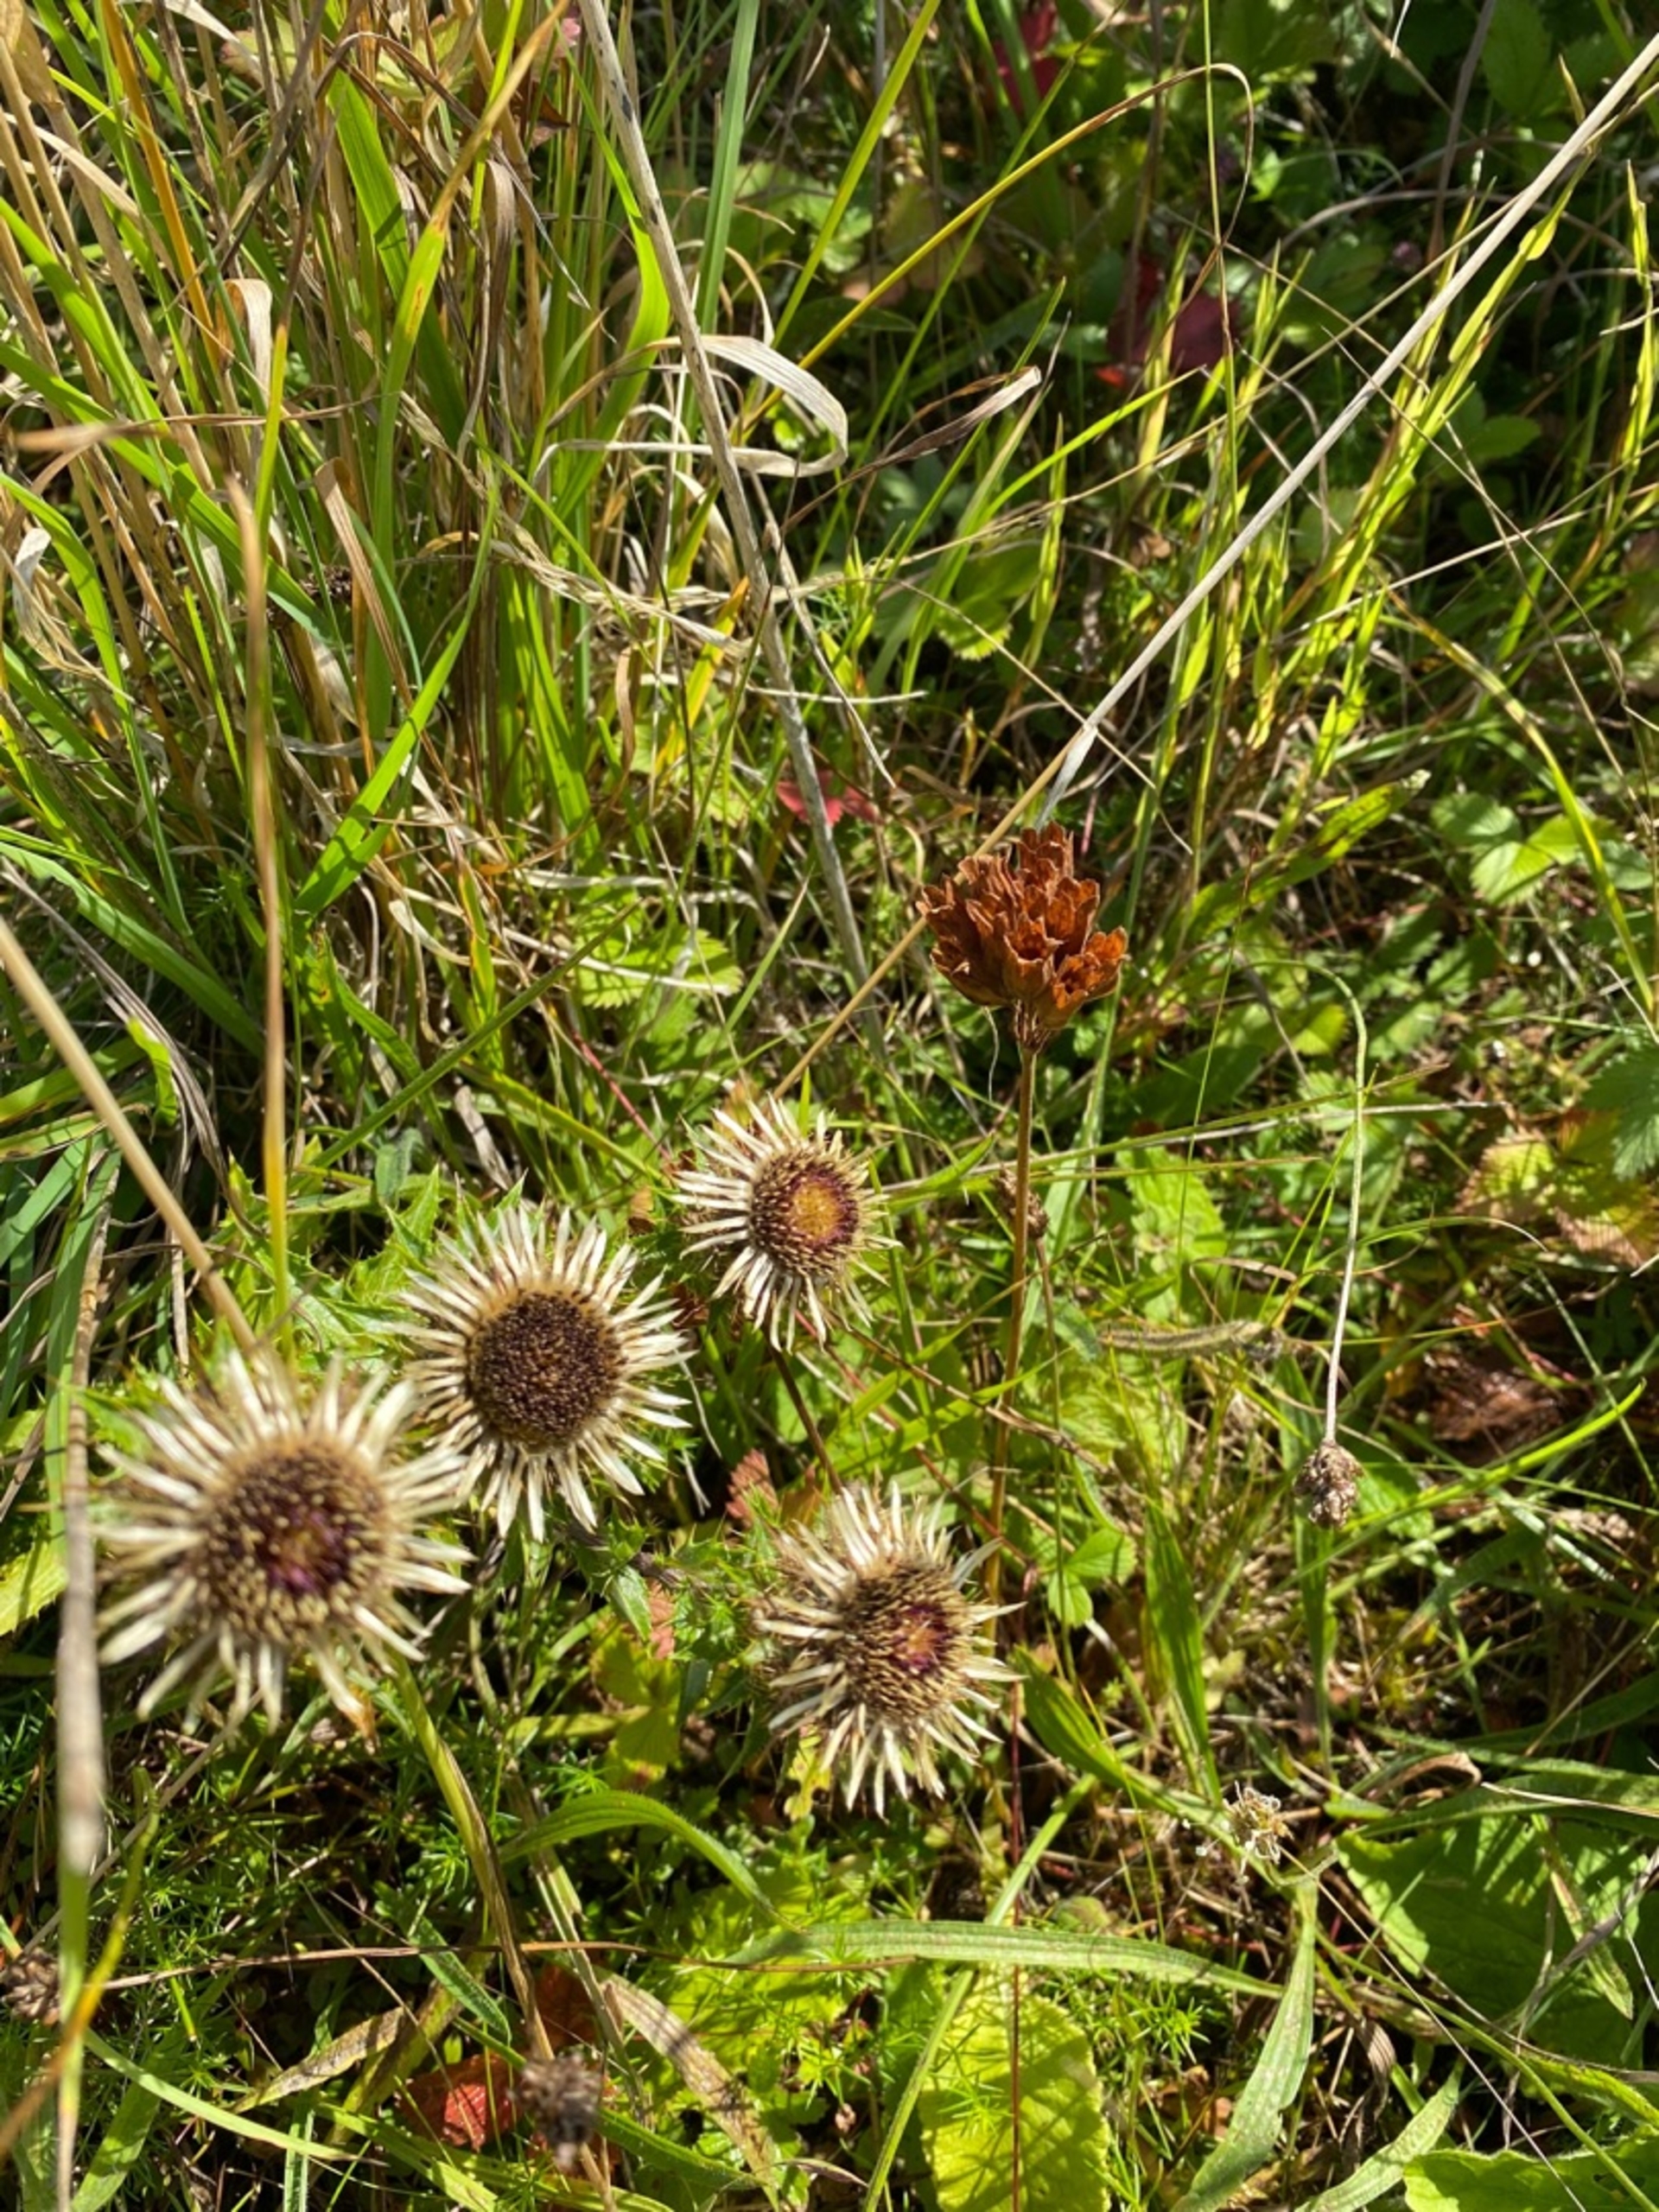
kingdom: Plantae
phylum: Tracheophyta
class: Magnoliopsida
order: Asterales
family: Asteraceae
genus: Carlina
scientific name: Carlina vulgaris
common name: Bakketidsel
